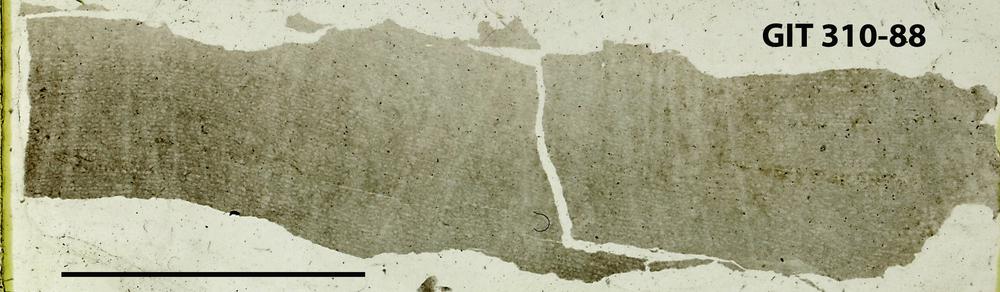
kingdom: Animalia
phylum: Porifera
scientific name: Porifera
